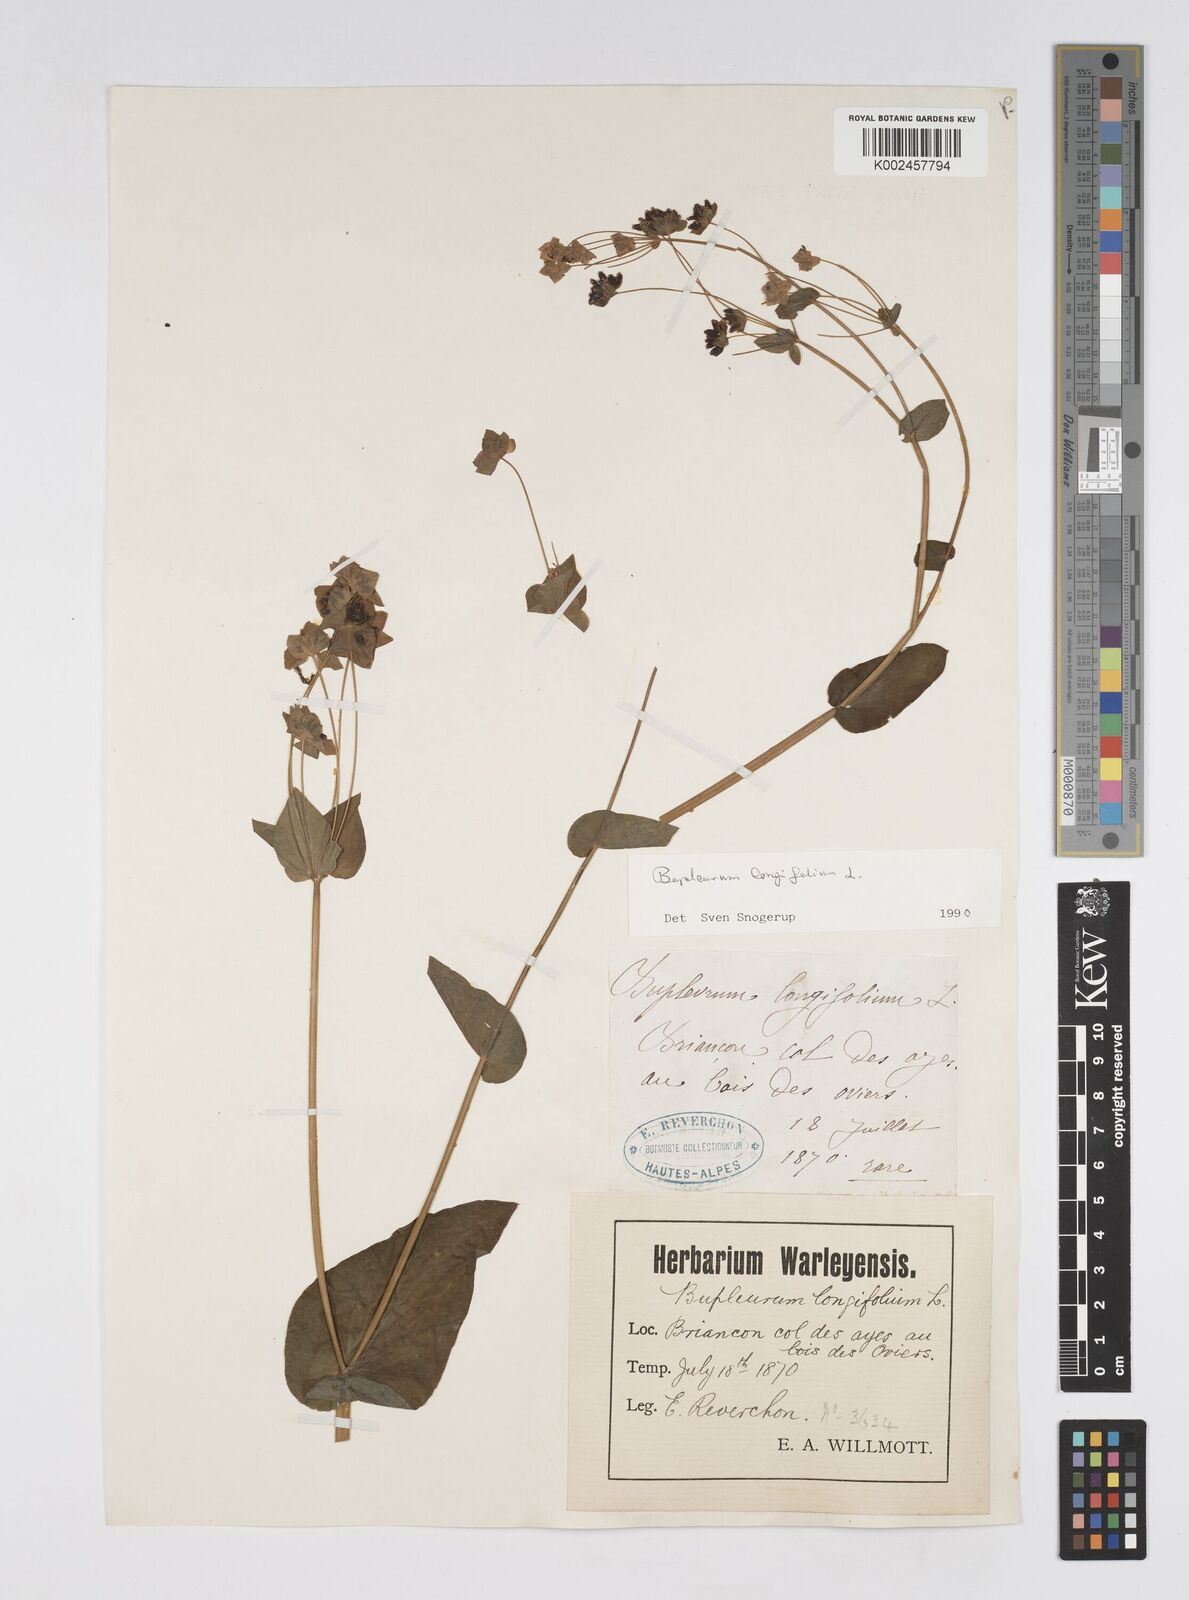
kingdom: Plantae
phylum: Tracheophyta
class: Magnoliopsida
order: Apiales
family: Apiaceae
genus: Bupleurum
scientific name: Bupleurum longifolium
